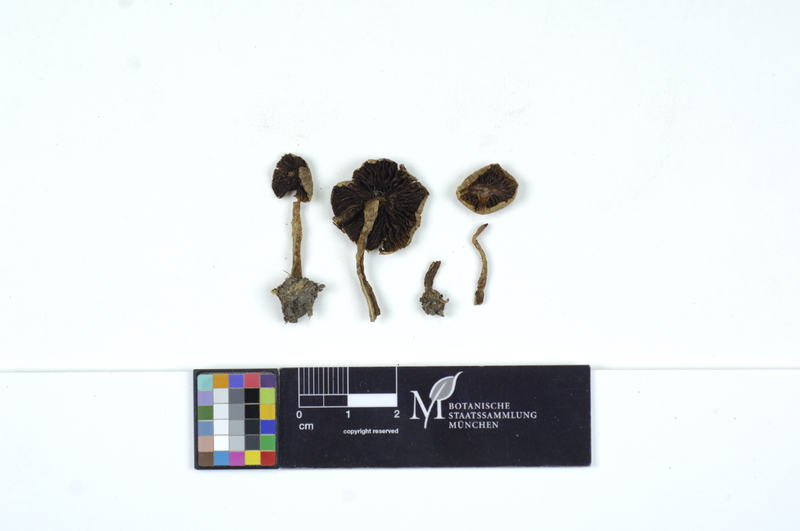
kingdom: Fungi
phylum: Basidiomycota
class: Agaricomycetes
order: Agaricales
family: Psathyrellaceae
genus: Psathyrella
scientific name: Psathyrella subpannucioides
